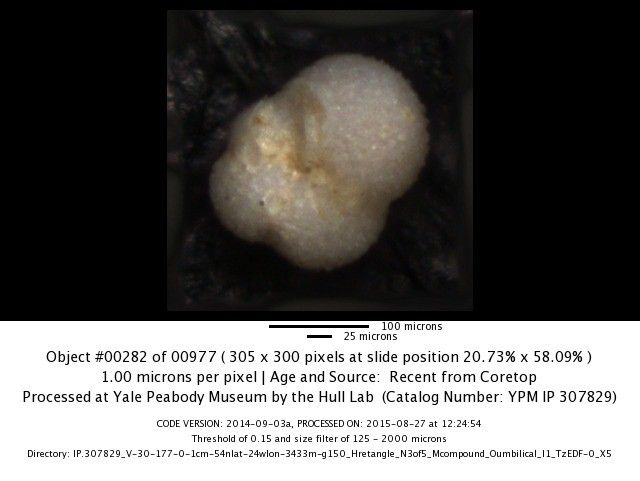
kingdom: Chromista
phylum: Foraminifera
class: Globothalamea
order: Rotaliida
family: Globorotaliidae
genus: Neogloboquadrina
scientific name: Neogloboquadrina incompta
